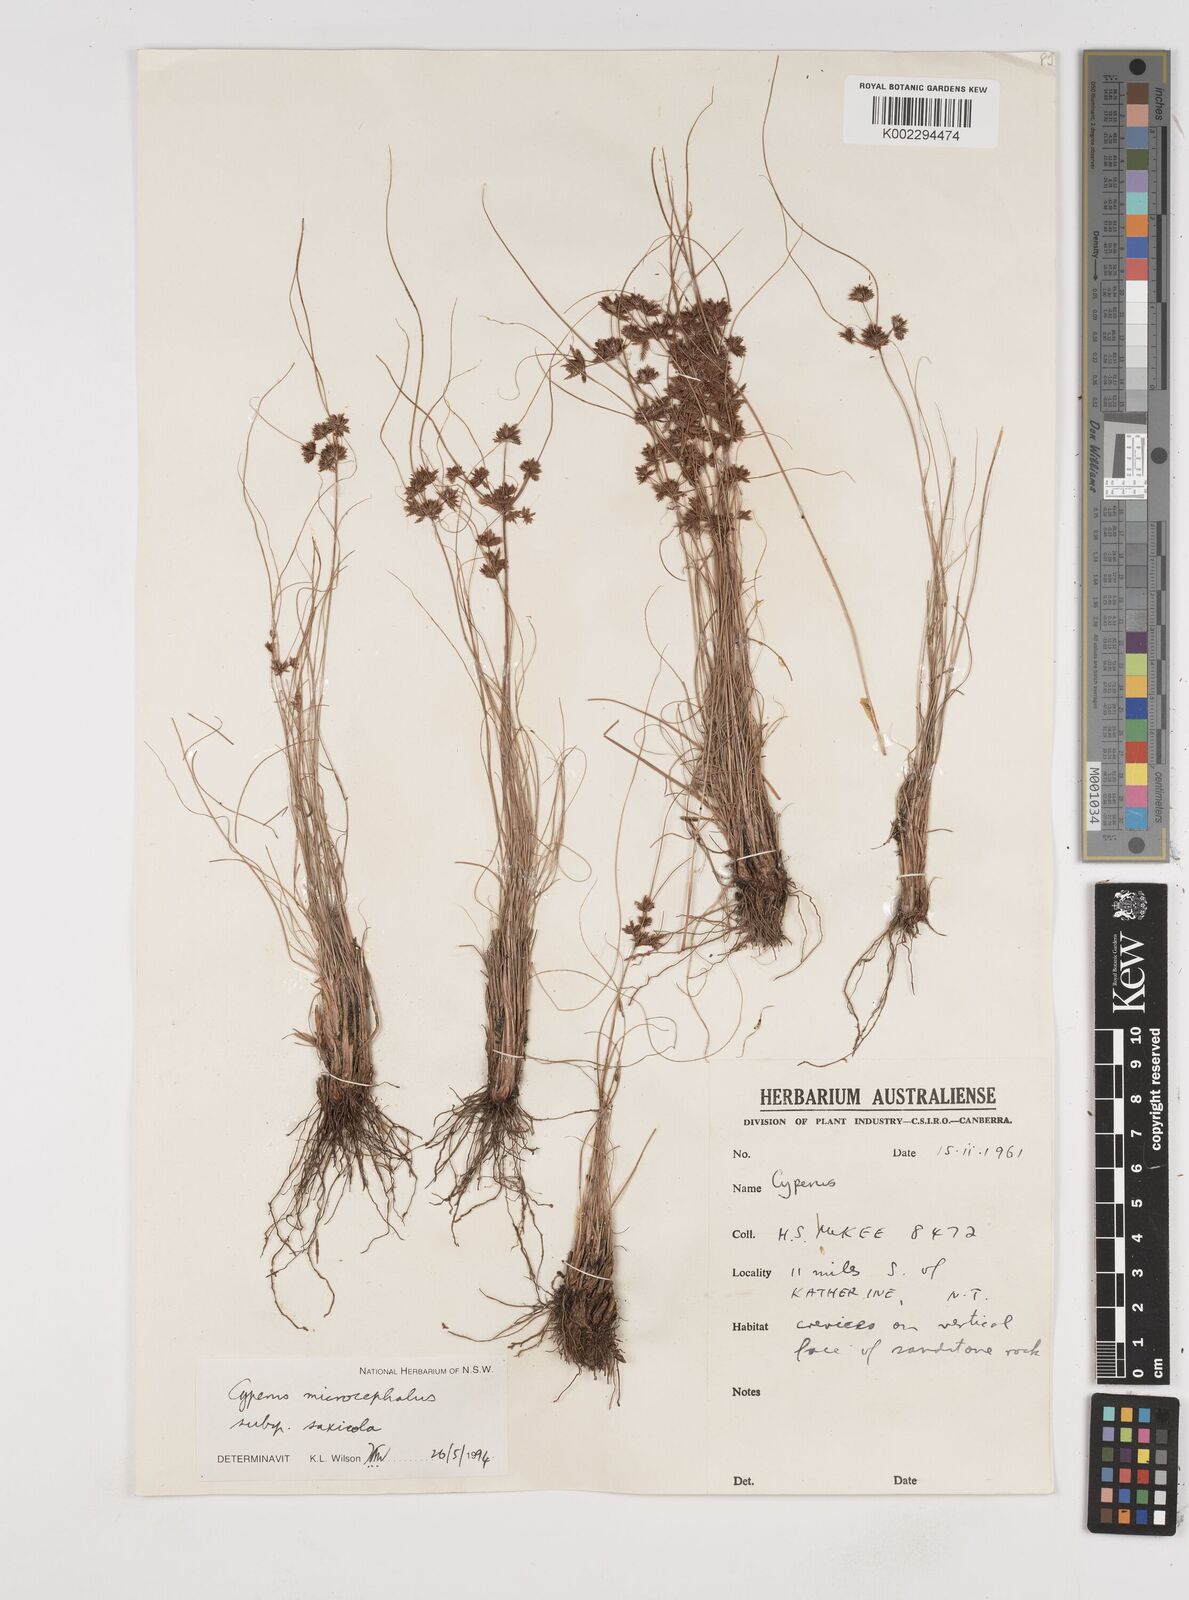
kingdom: Plantae
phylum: Tracheophyta
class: Liliopsida
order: Poales
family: Cyperaceae
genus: Cyperus
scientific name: Cyperus microcephalus
